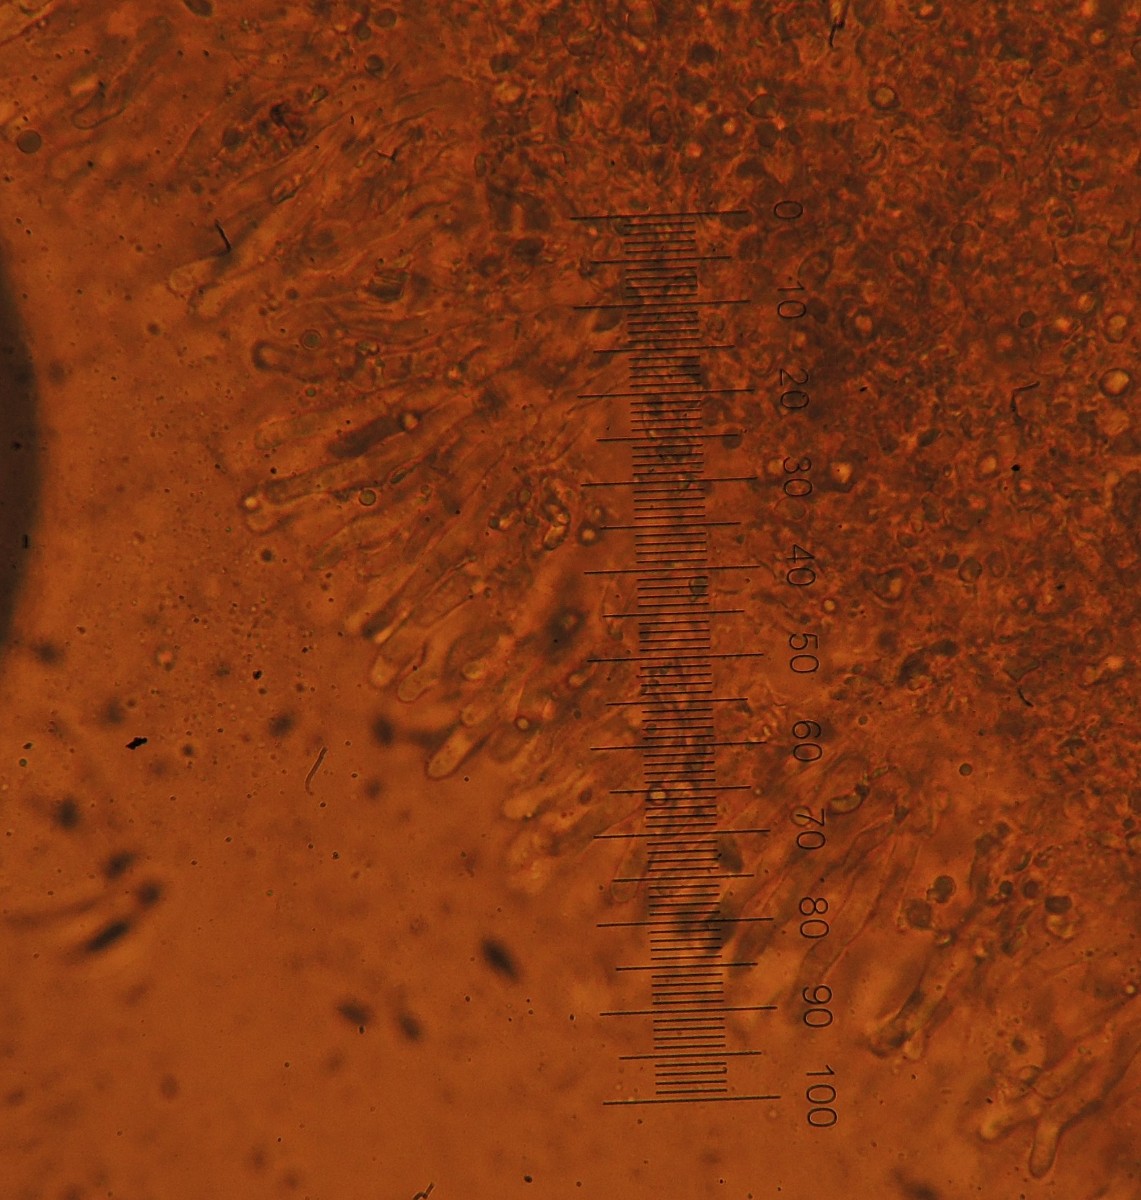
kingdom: Fungi
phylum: Basidiomycota
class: Agaricomycetes
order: Agaricales
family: Porotheleaceae
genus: Phloeomana
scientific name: Phloeomana speirea
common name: kvist-huesvamp
